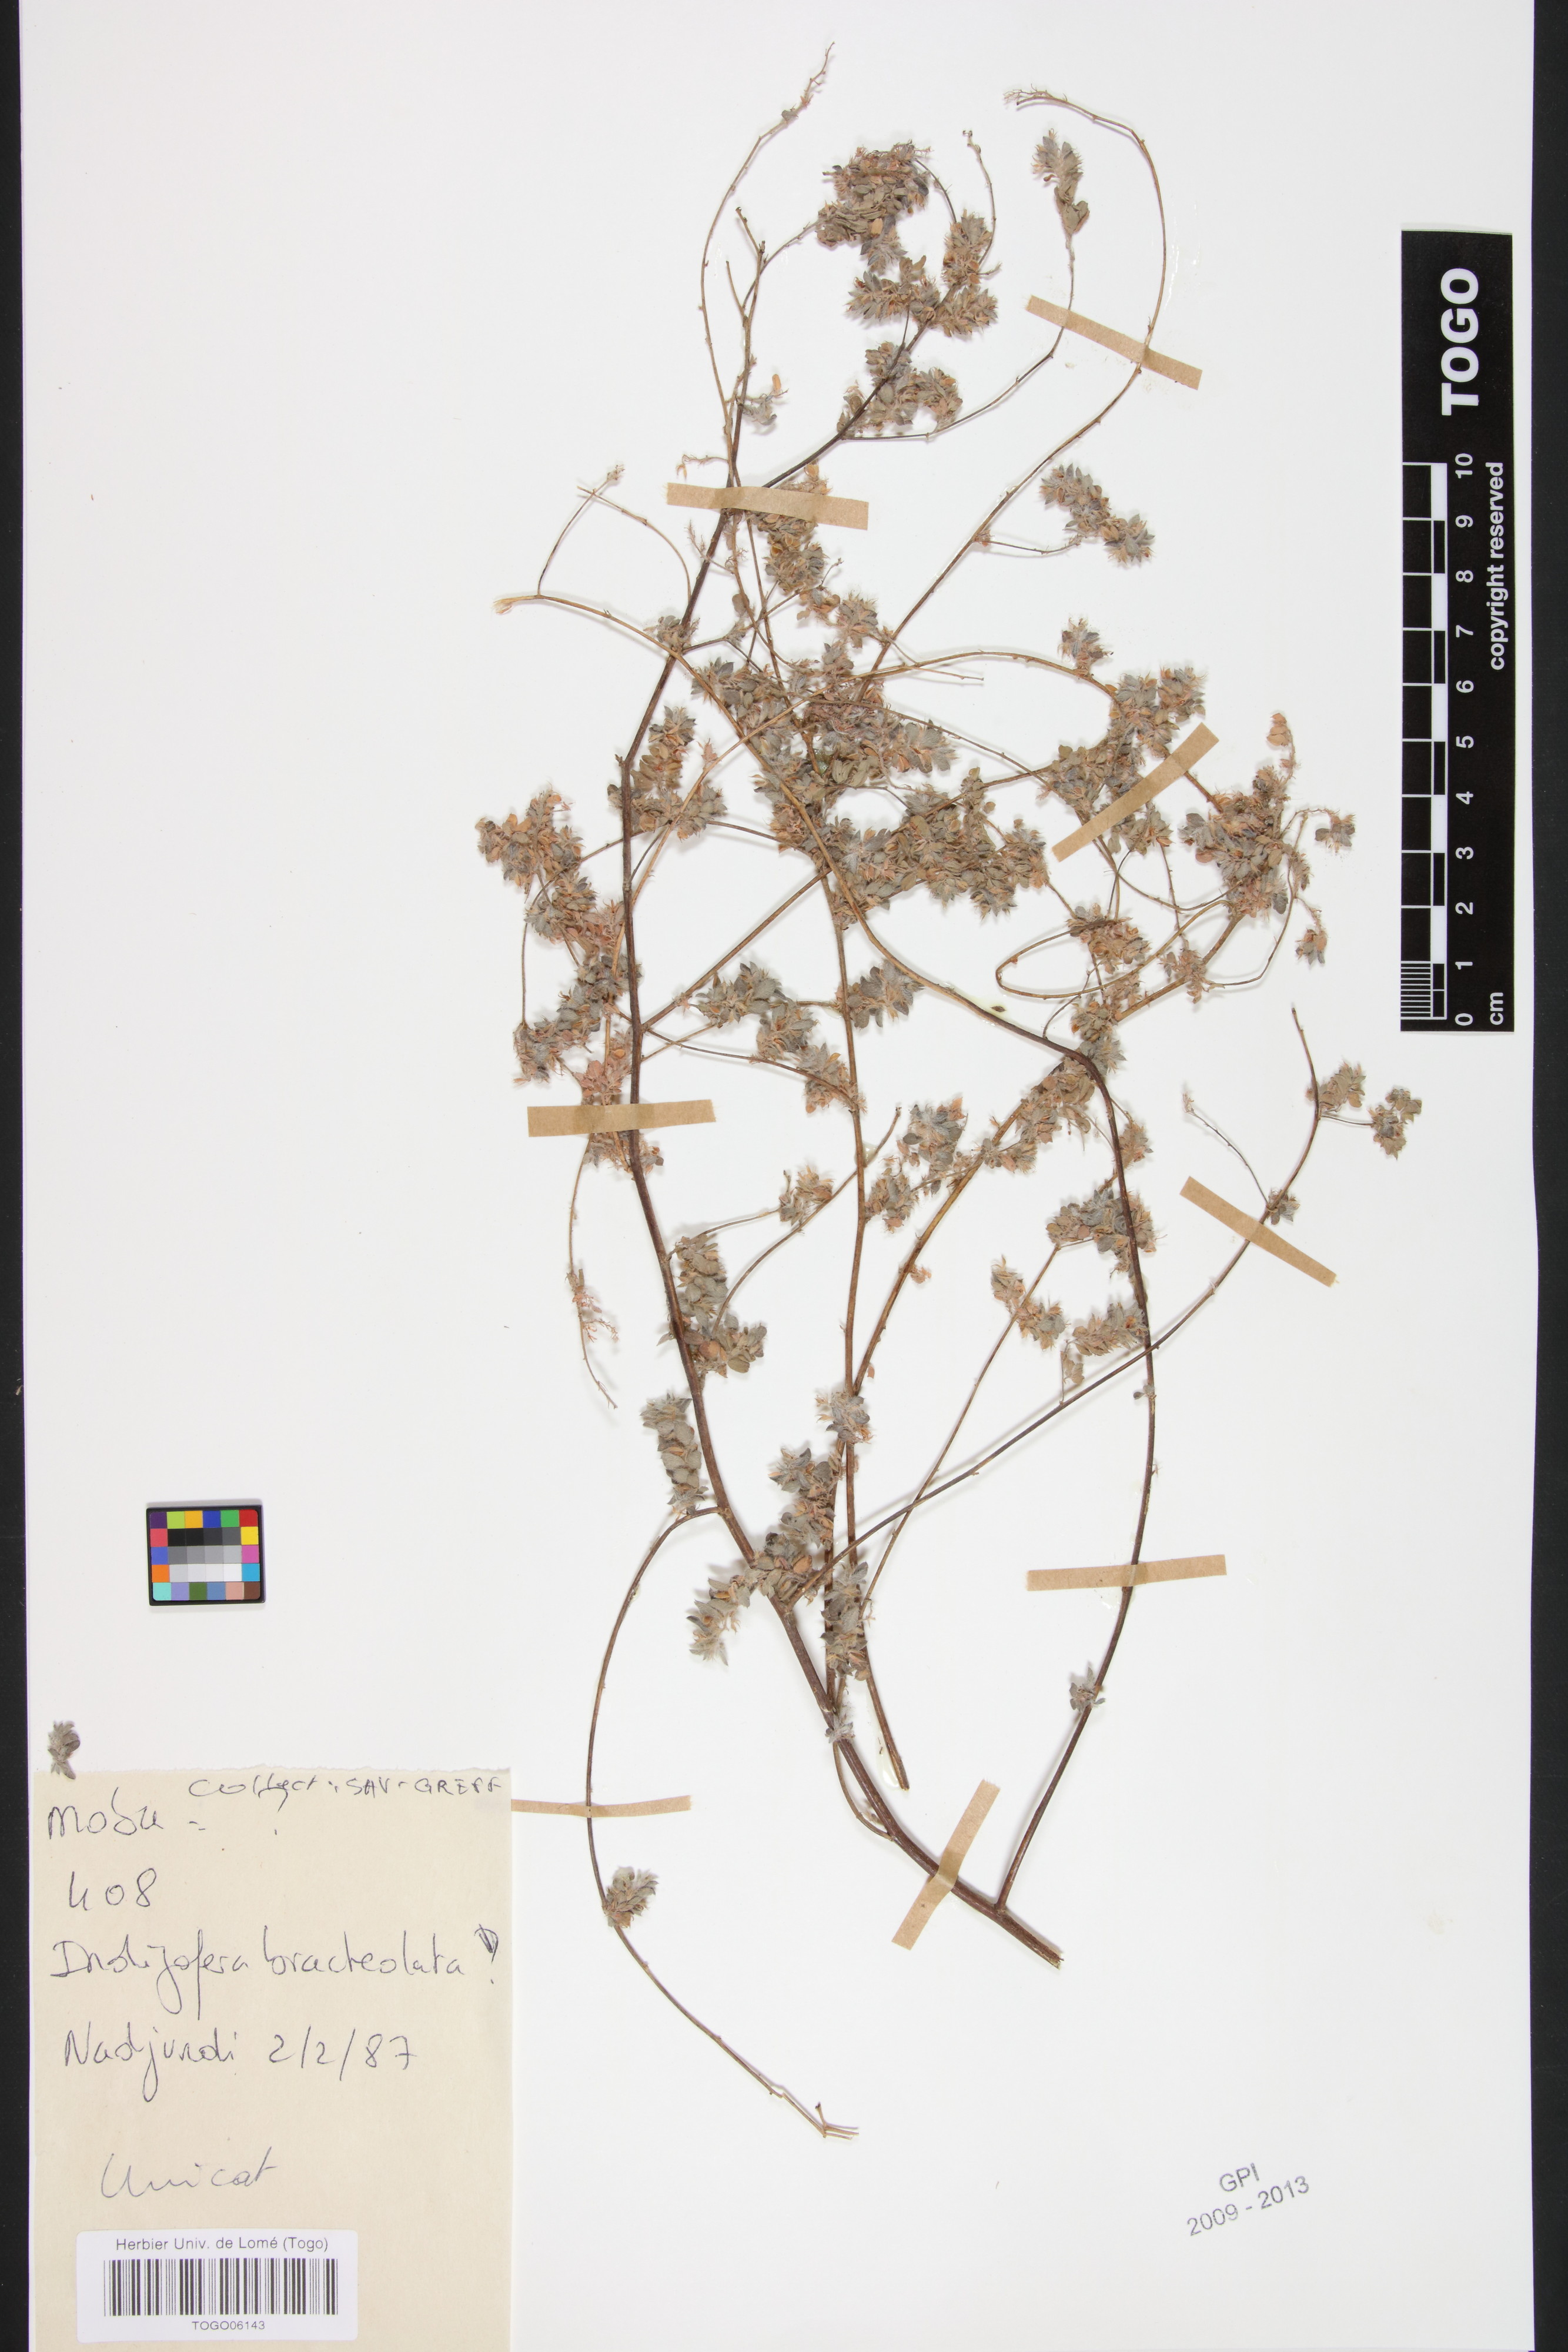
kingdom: Plantae
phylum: Tracheophyta
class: Magnoliopsida
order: Fabales
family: Fabaceae
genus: Indigofera
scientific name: Indigofera bracteolata
